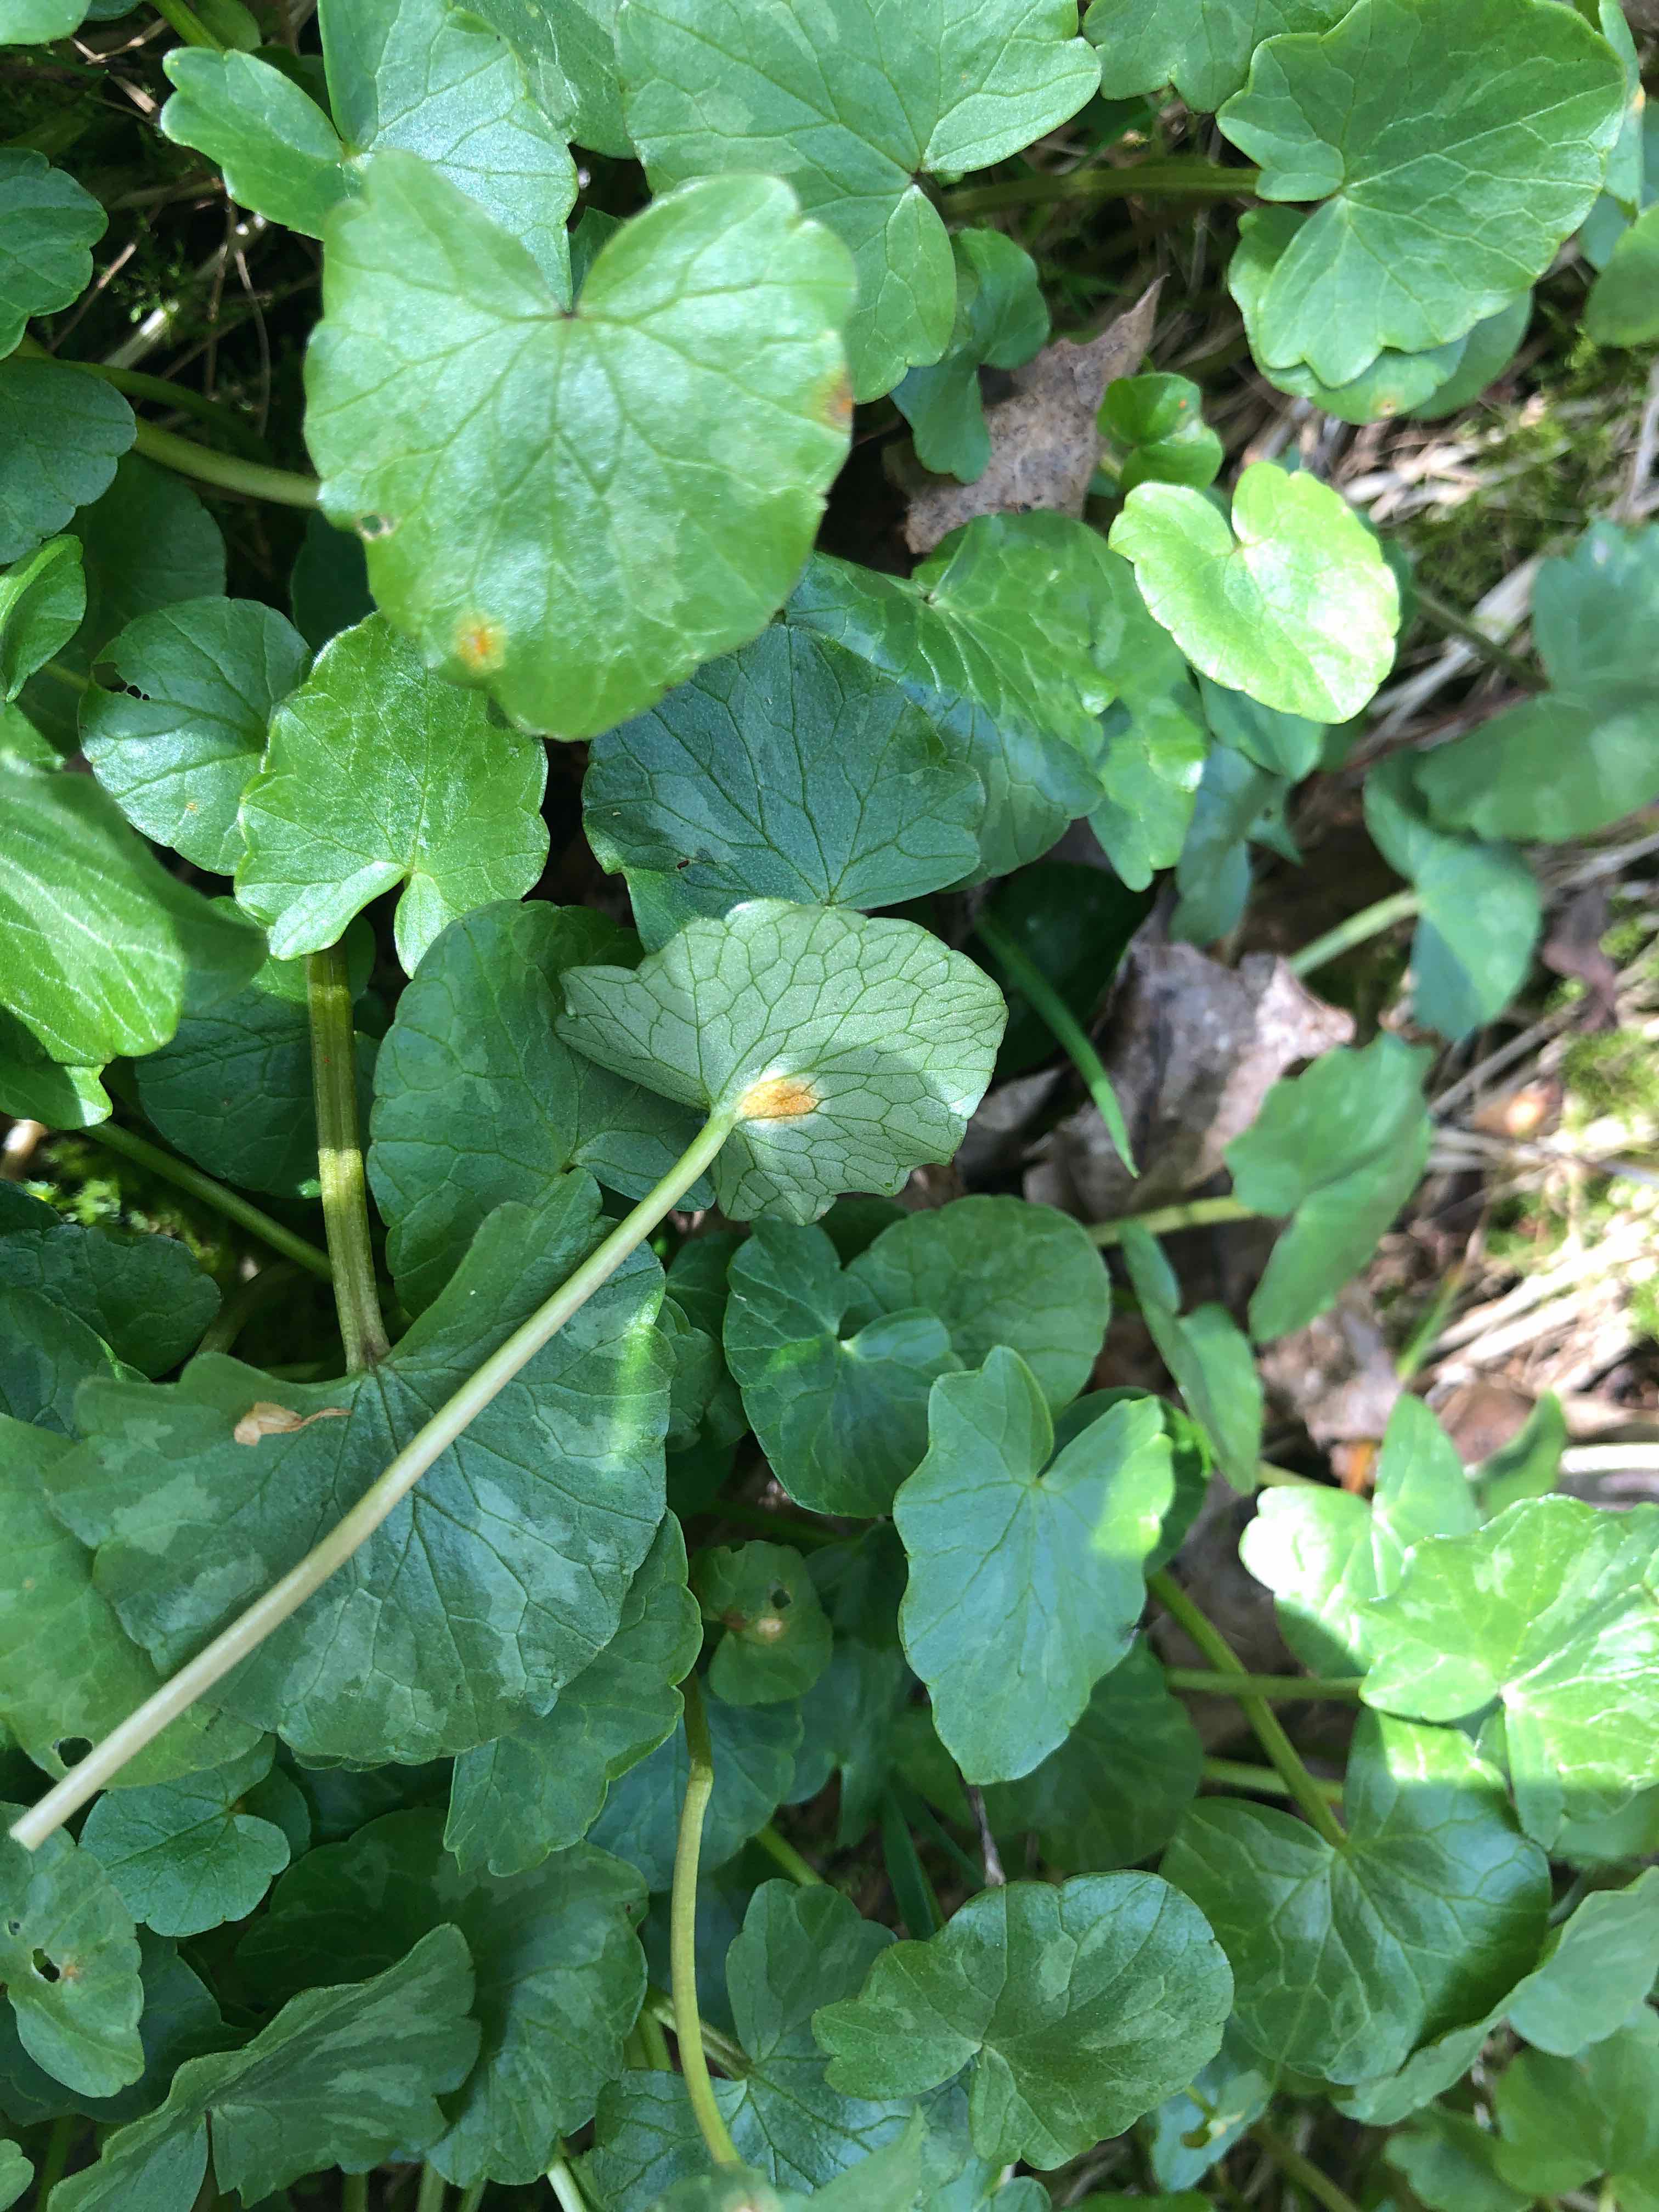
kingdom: Fungi
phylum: Basidiomycota
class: Pucciniomycetes
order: Pucciniales
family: Pucciniaceae
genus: Uromyces
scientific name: Uromyces dactylidis
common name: ranunkel-encellerust
